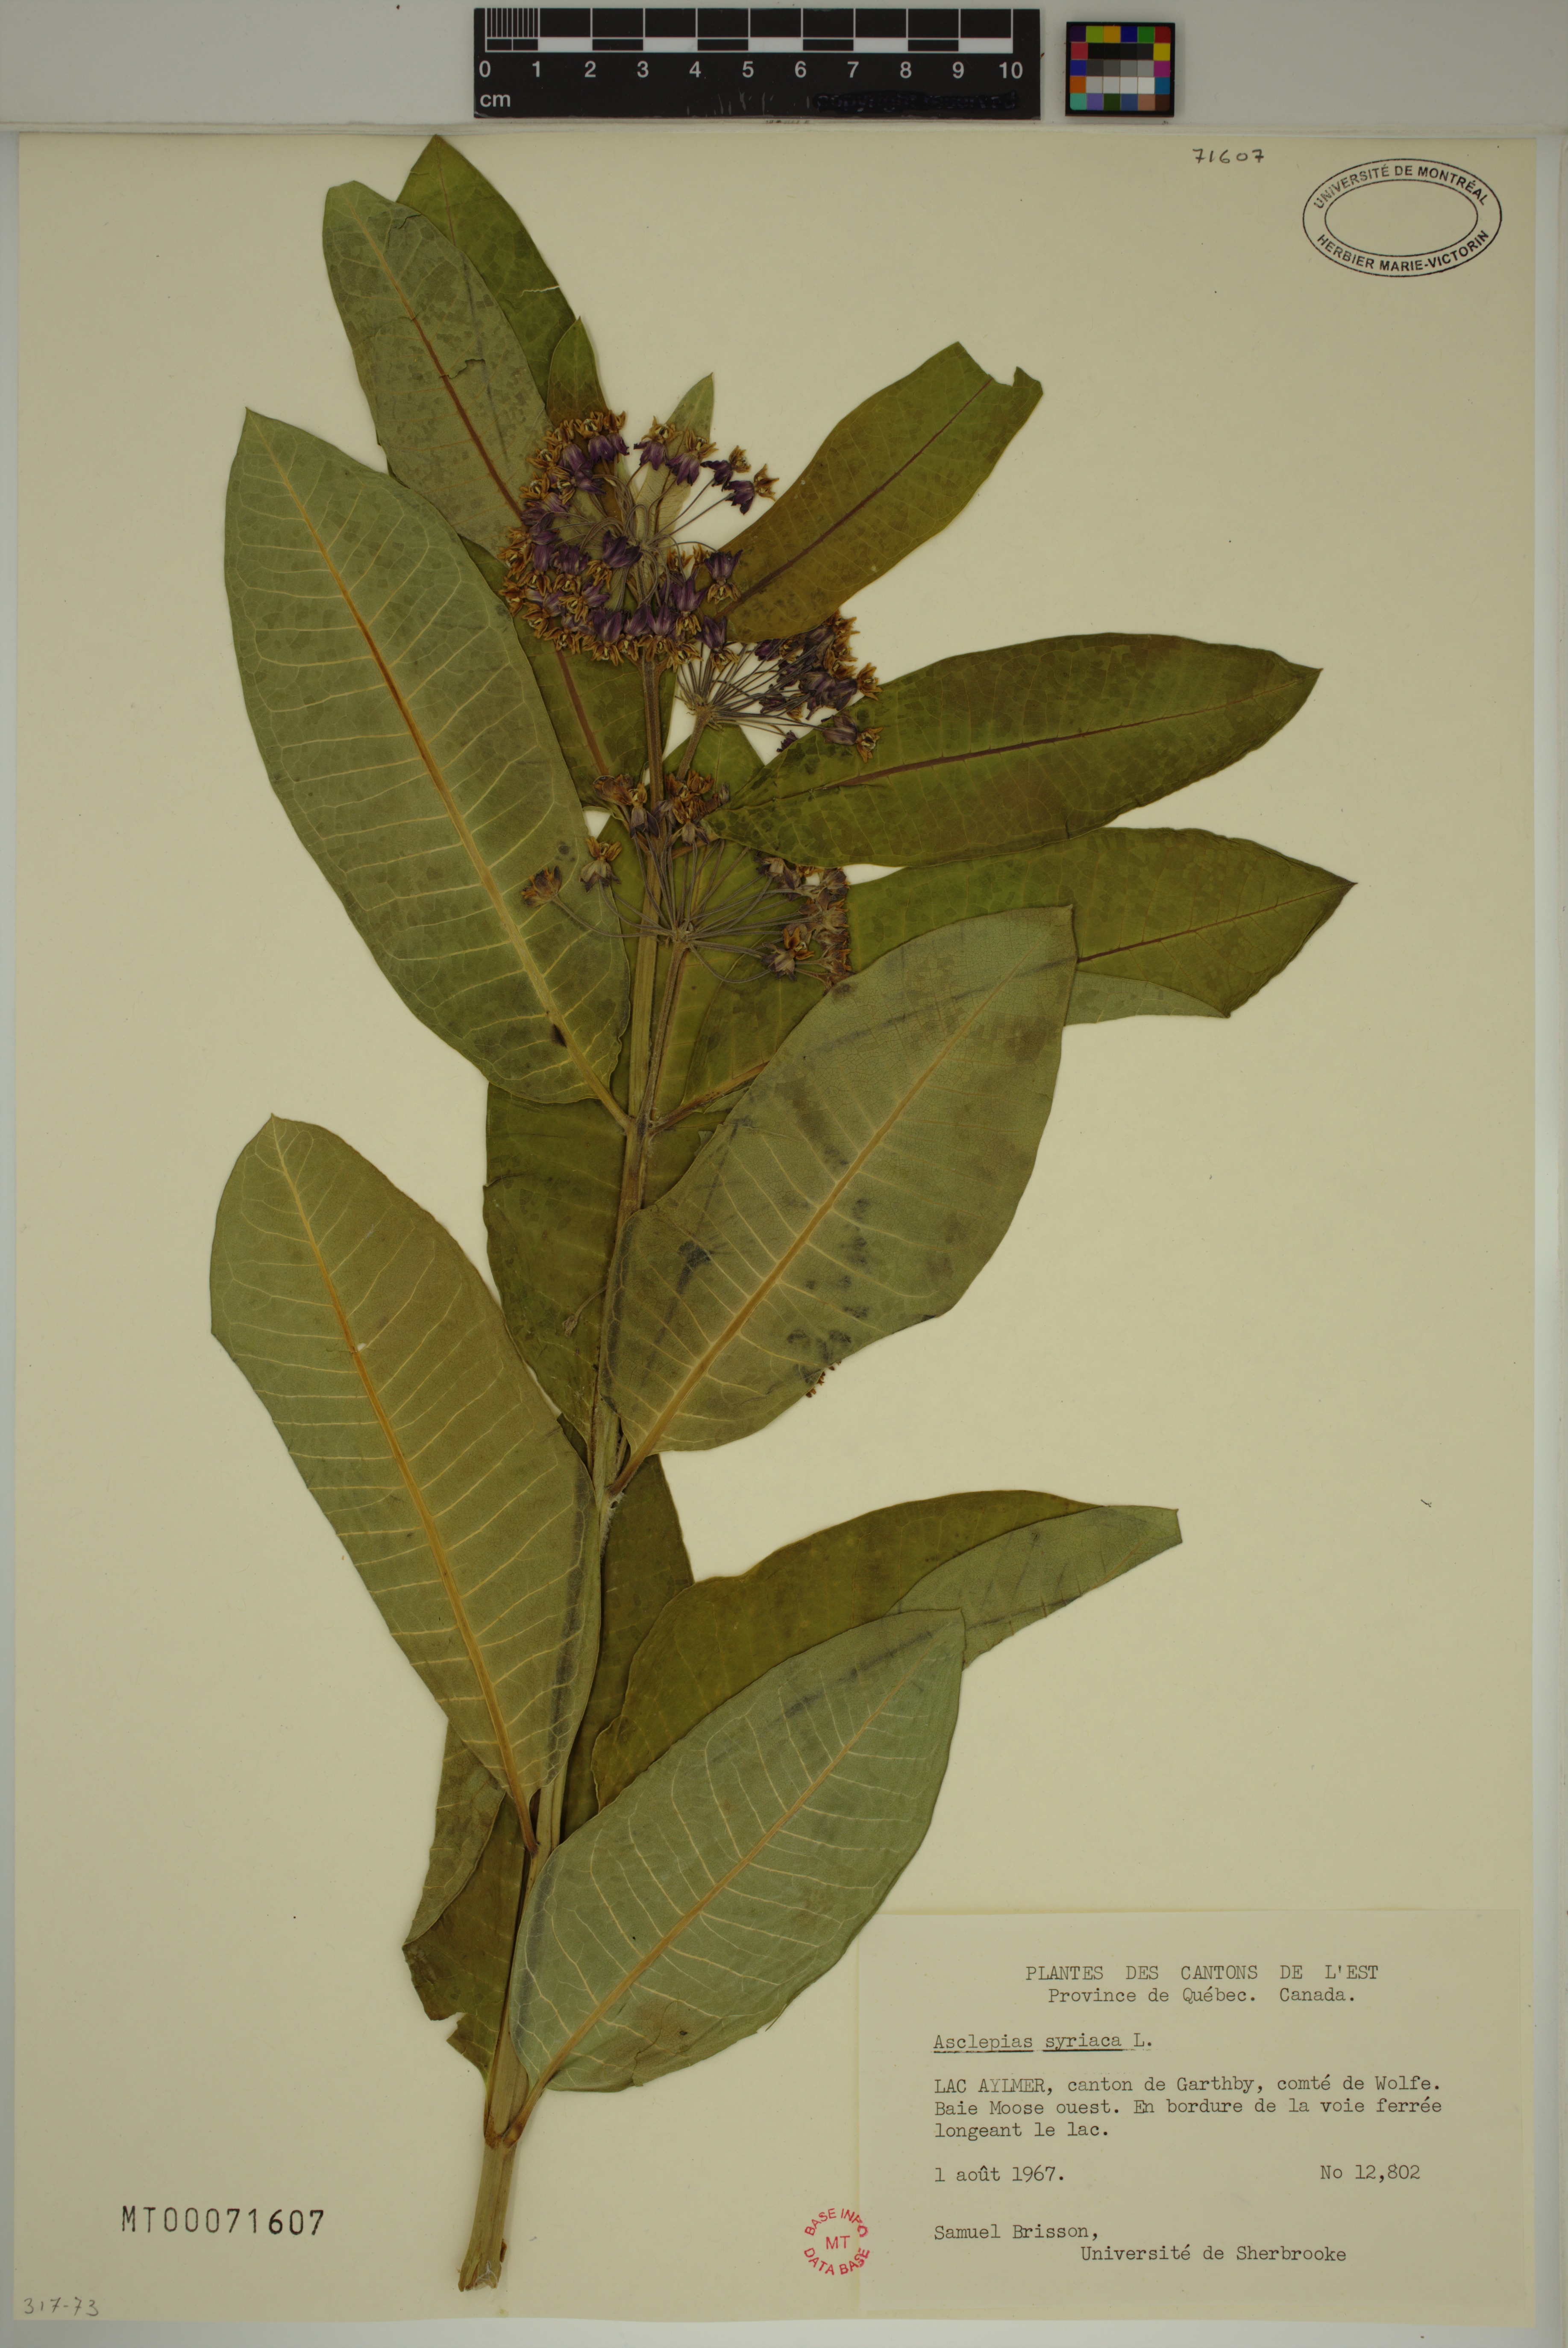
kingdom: Plantae
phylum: Tracheophyta
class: Magnoliopsida
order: Gentianales
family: Apocynaceae
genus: Asclepias
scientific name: Asclepias syriaca
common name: Common milkweed
